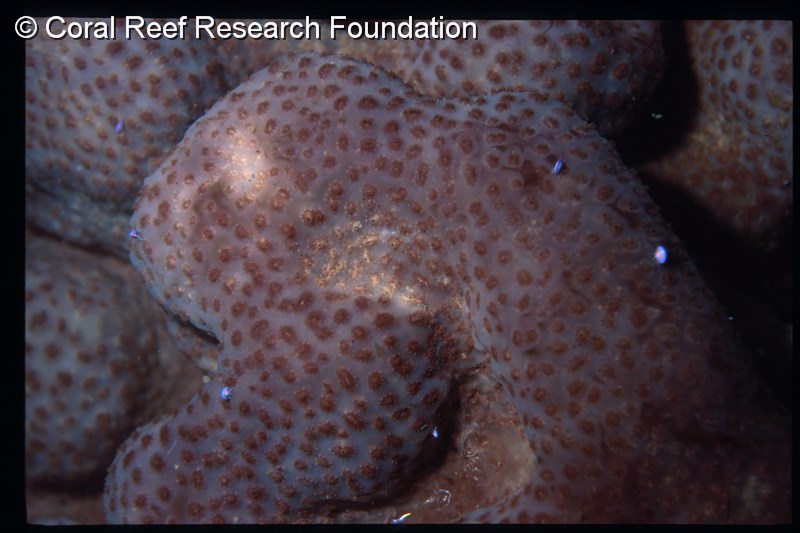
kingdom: Animalia
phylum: Chordata
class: Ascidiacea
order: Aplousobranchia
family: Polyclinidae
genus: Synoicum
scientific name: Synoicum
